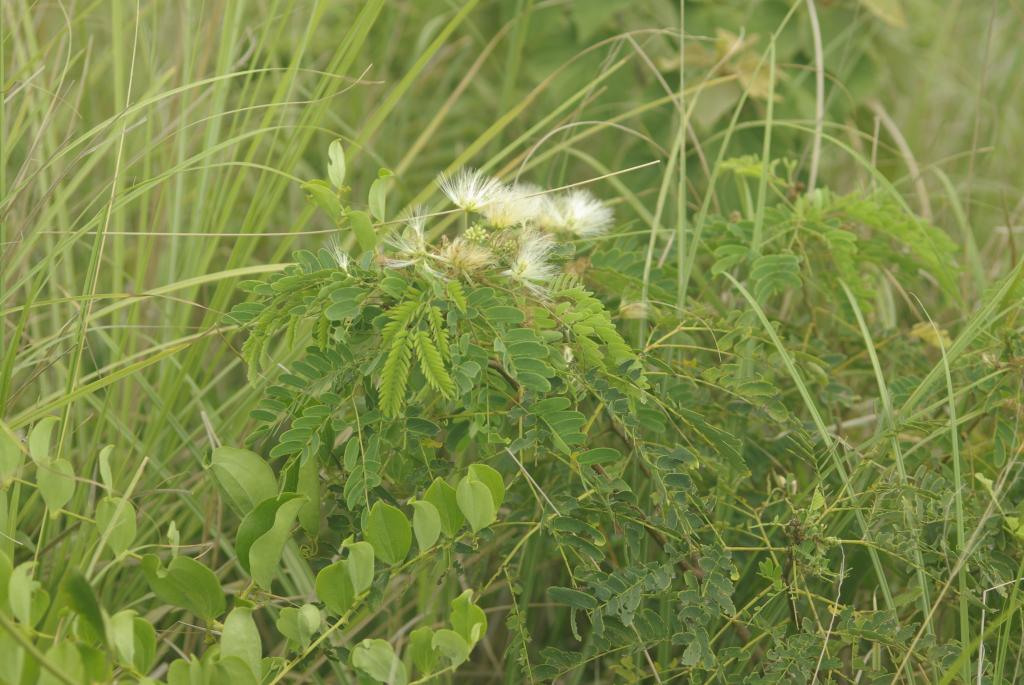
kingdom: Plantae
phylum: Tracheophyta
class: Magnoliopsida
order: Fabales
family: Fabaceae
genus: Albizia
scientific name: Albizia kalkora
